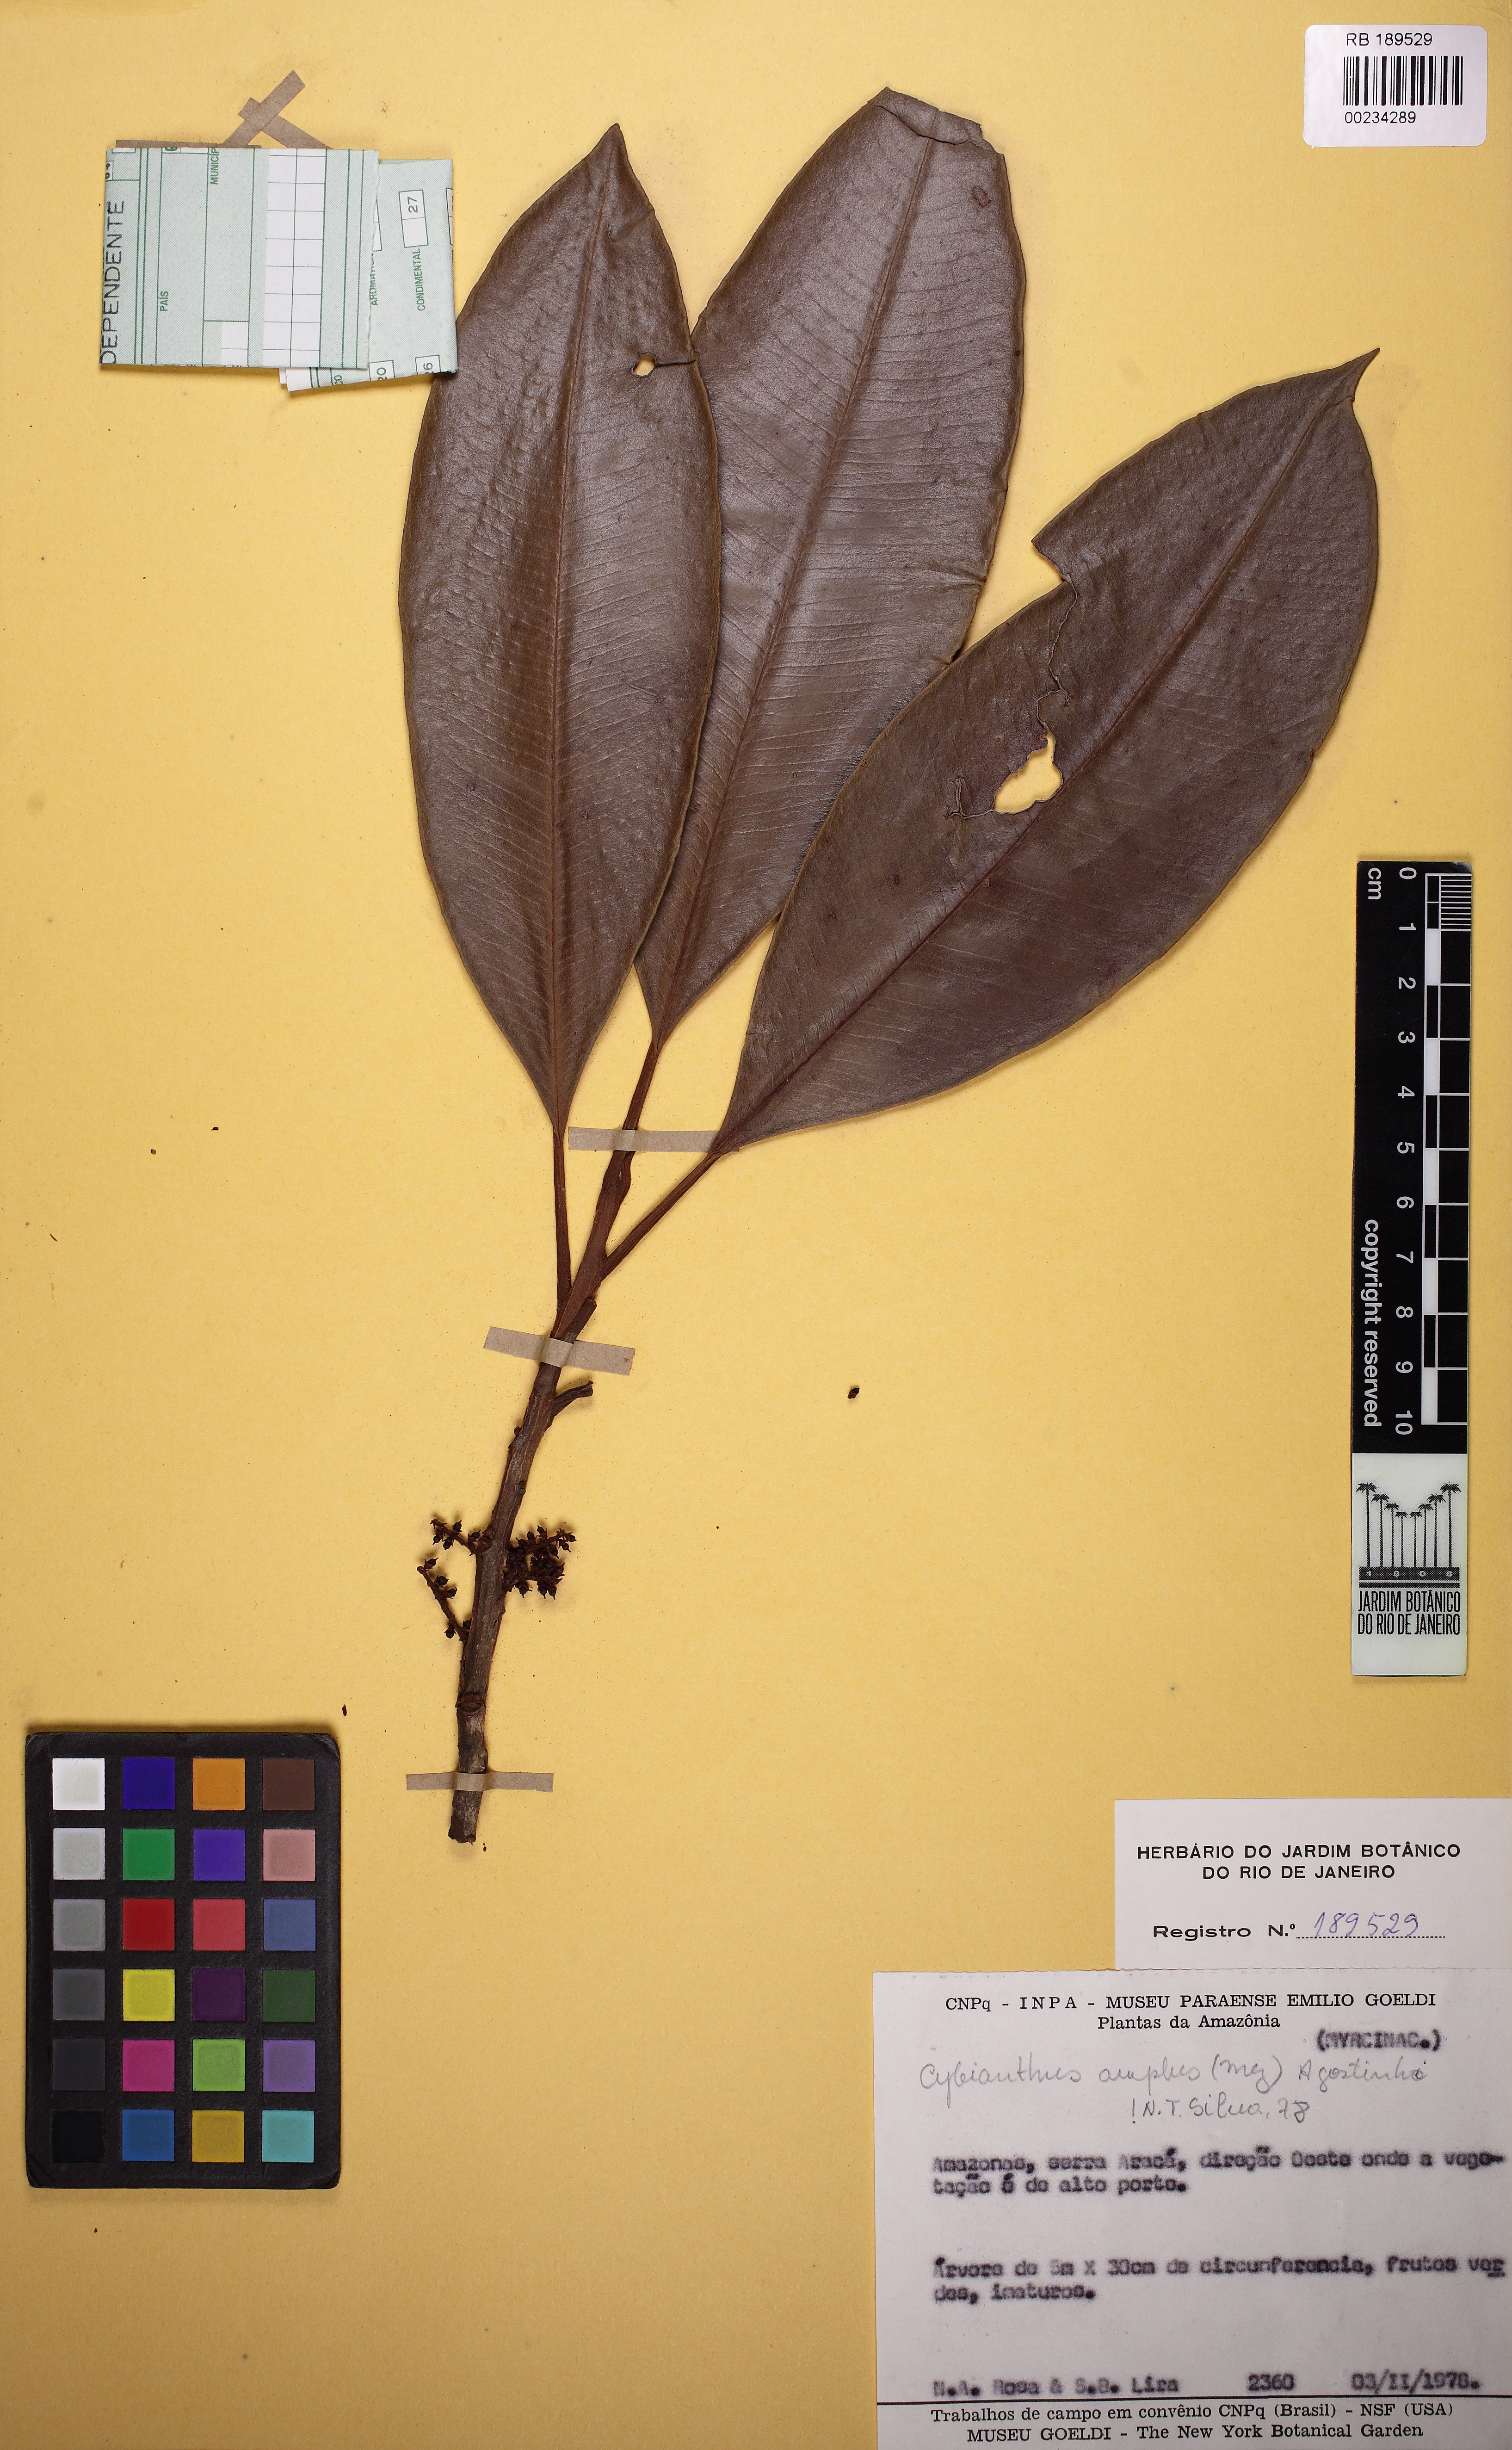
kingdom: Plantae
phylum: Tracheophyta
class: Magnoliopsida
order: Ericales
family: Primulaceae
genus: Cybianthus
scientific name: Cybianthus amplus
